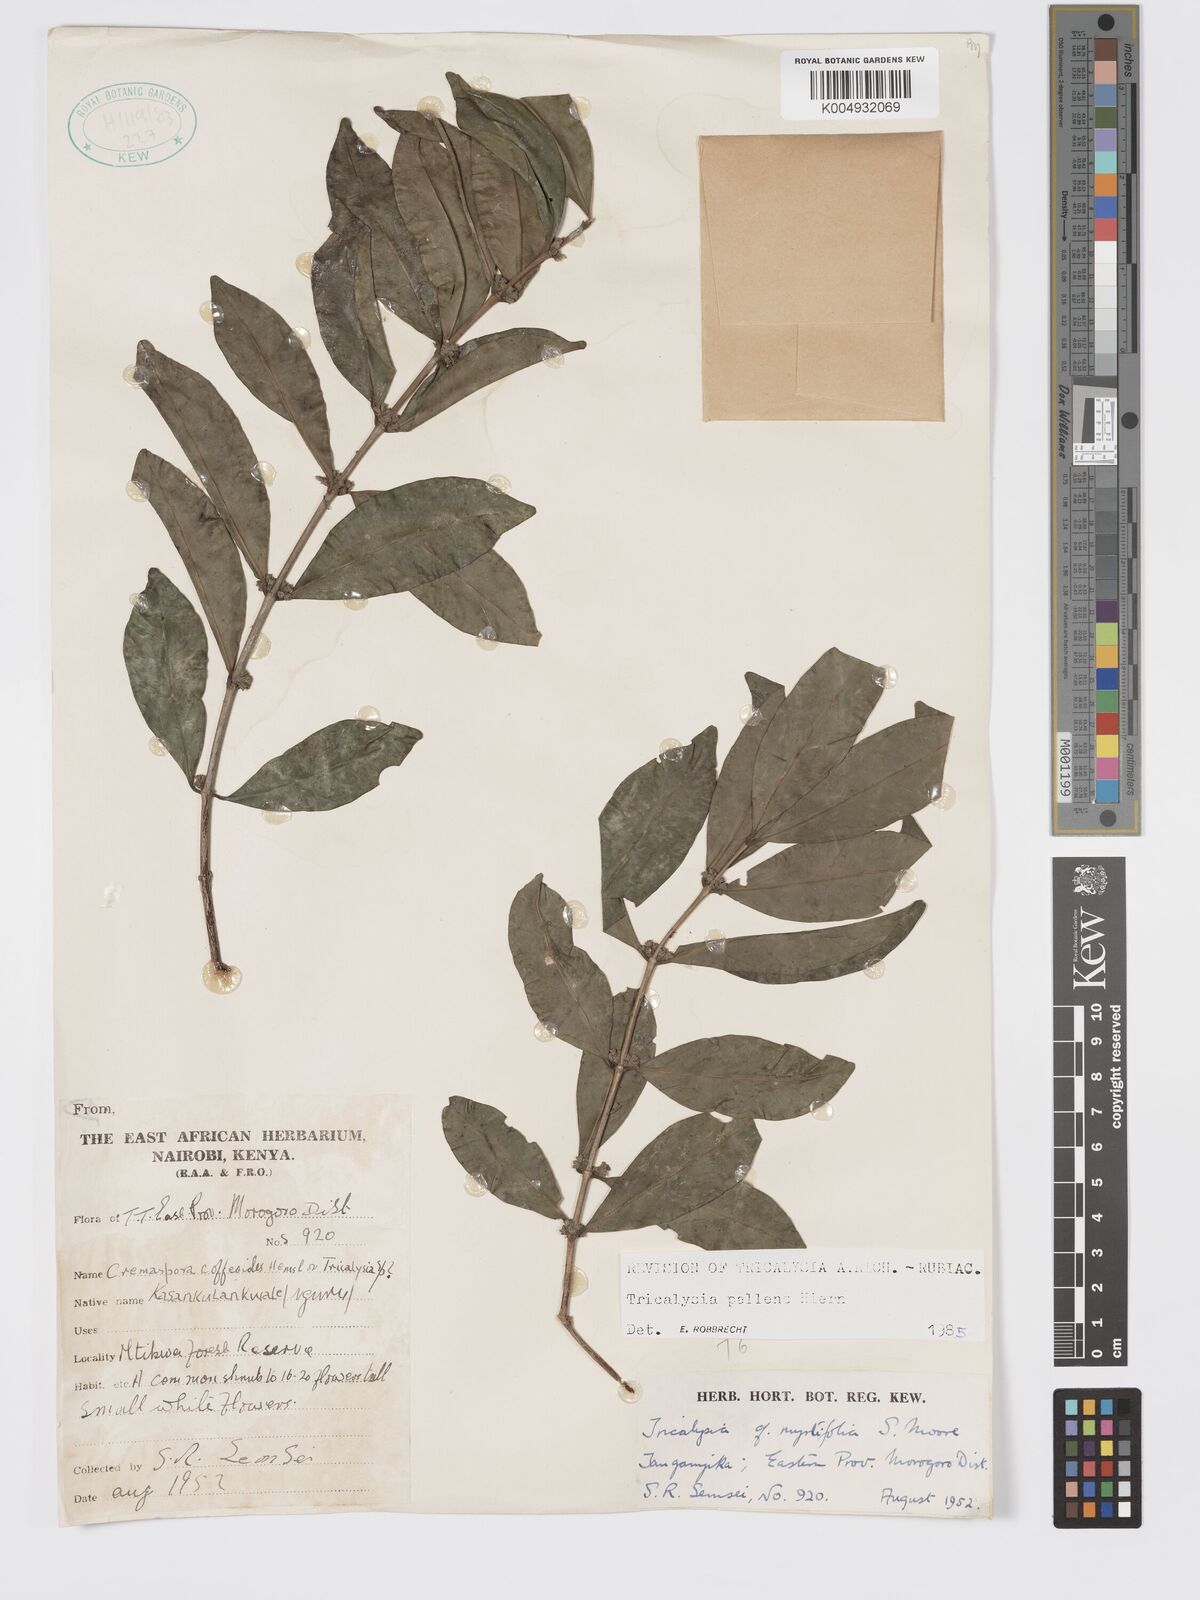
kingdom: Plantae
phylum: Tracheophyta
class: Magnoliopsida
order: Gentianales
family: Rubiaceae
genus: Tricalysia
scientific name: Tricalysia pallens
